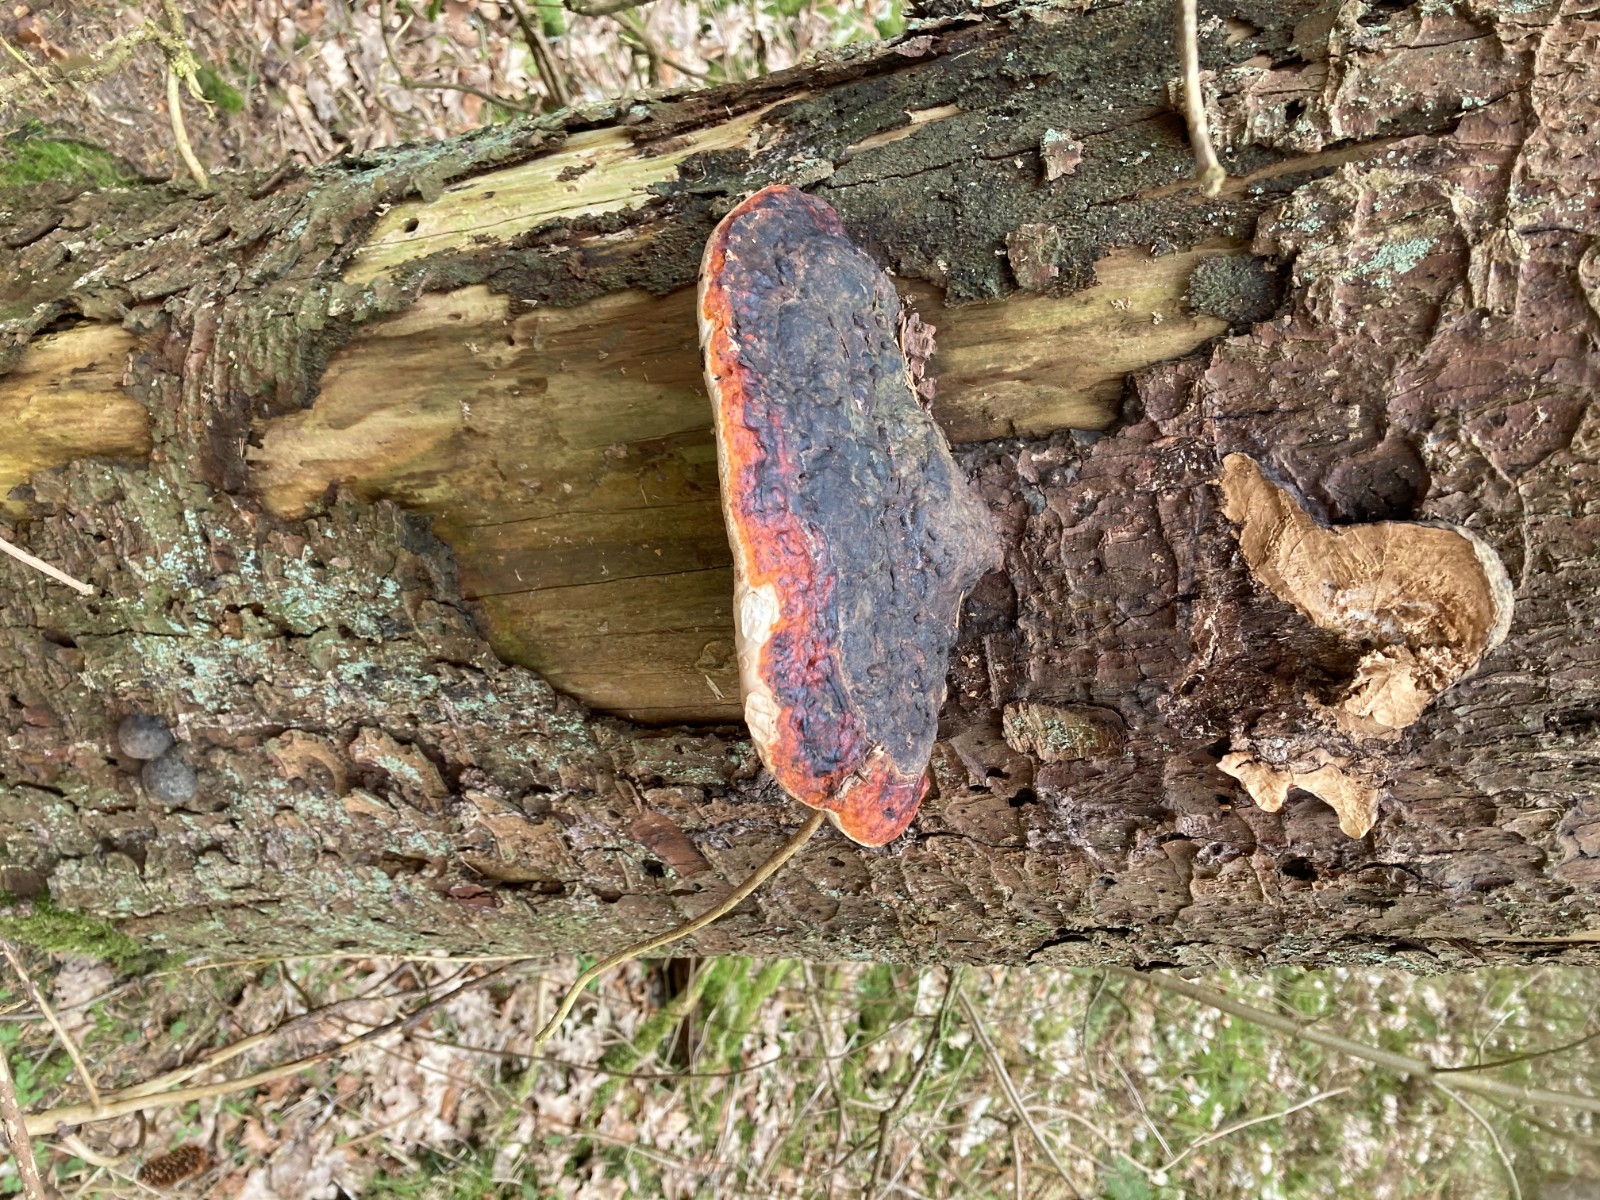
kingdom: Fungi
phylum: Basidiomycota
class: Agaricomycetes
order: Polyporales
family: Fomitopsidaceae
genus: Fomitopsis
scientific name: Fomitopsis pinicola
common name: randbæltet hovporesvamp
